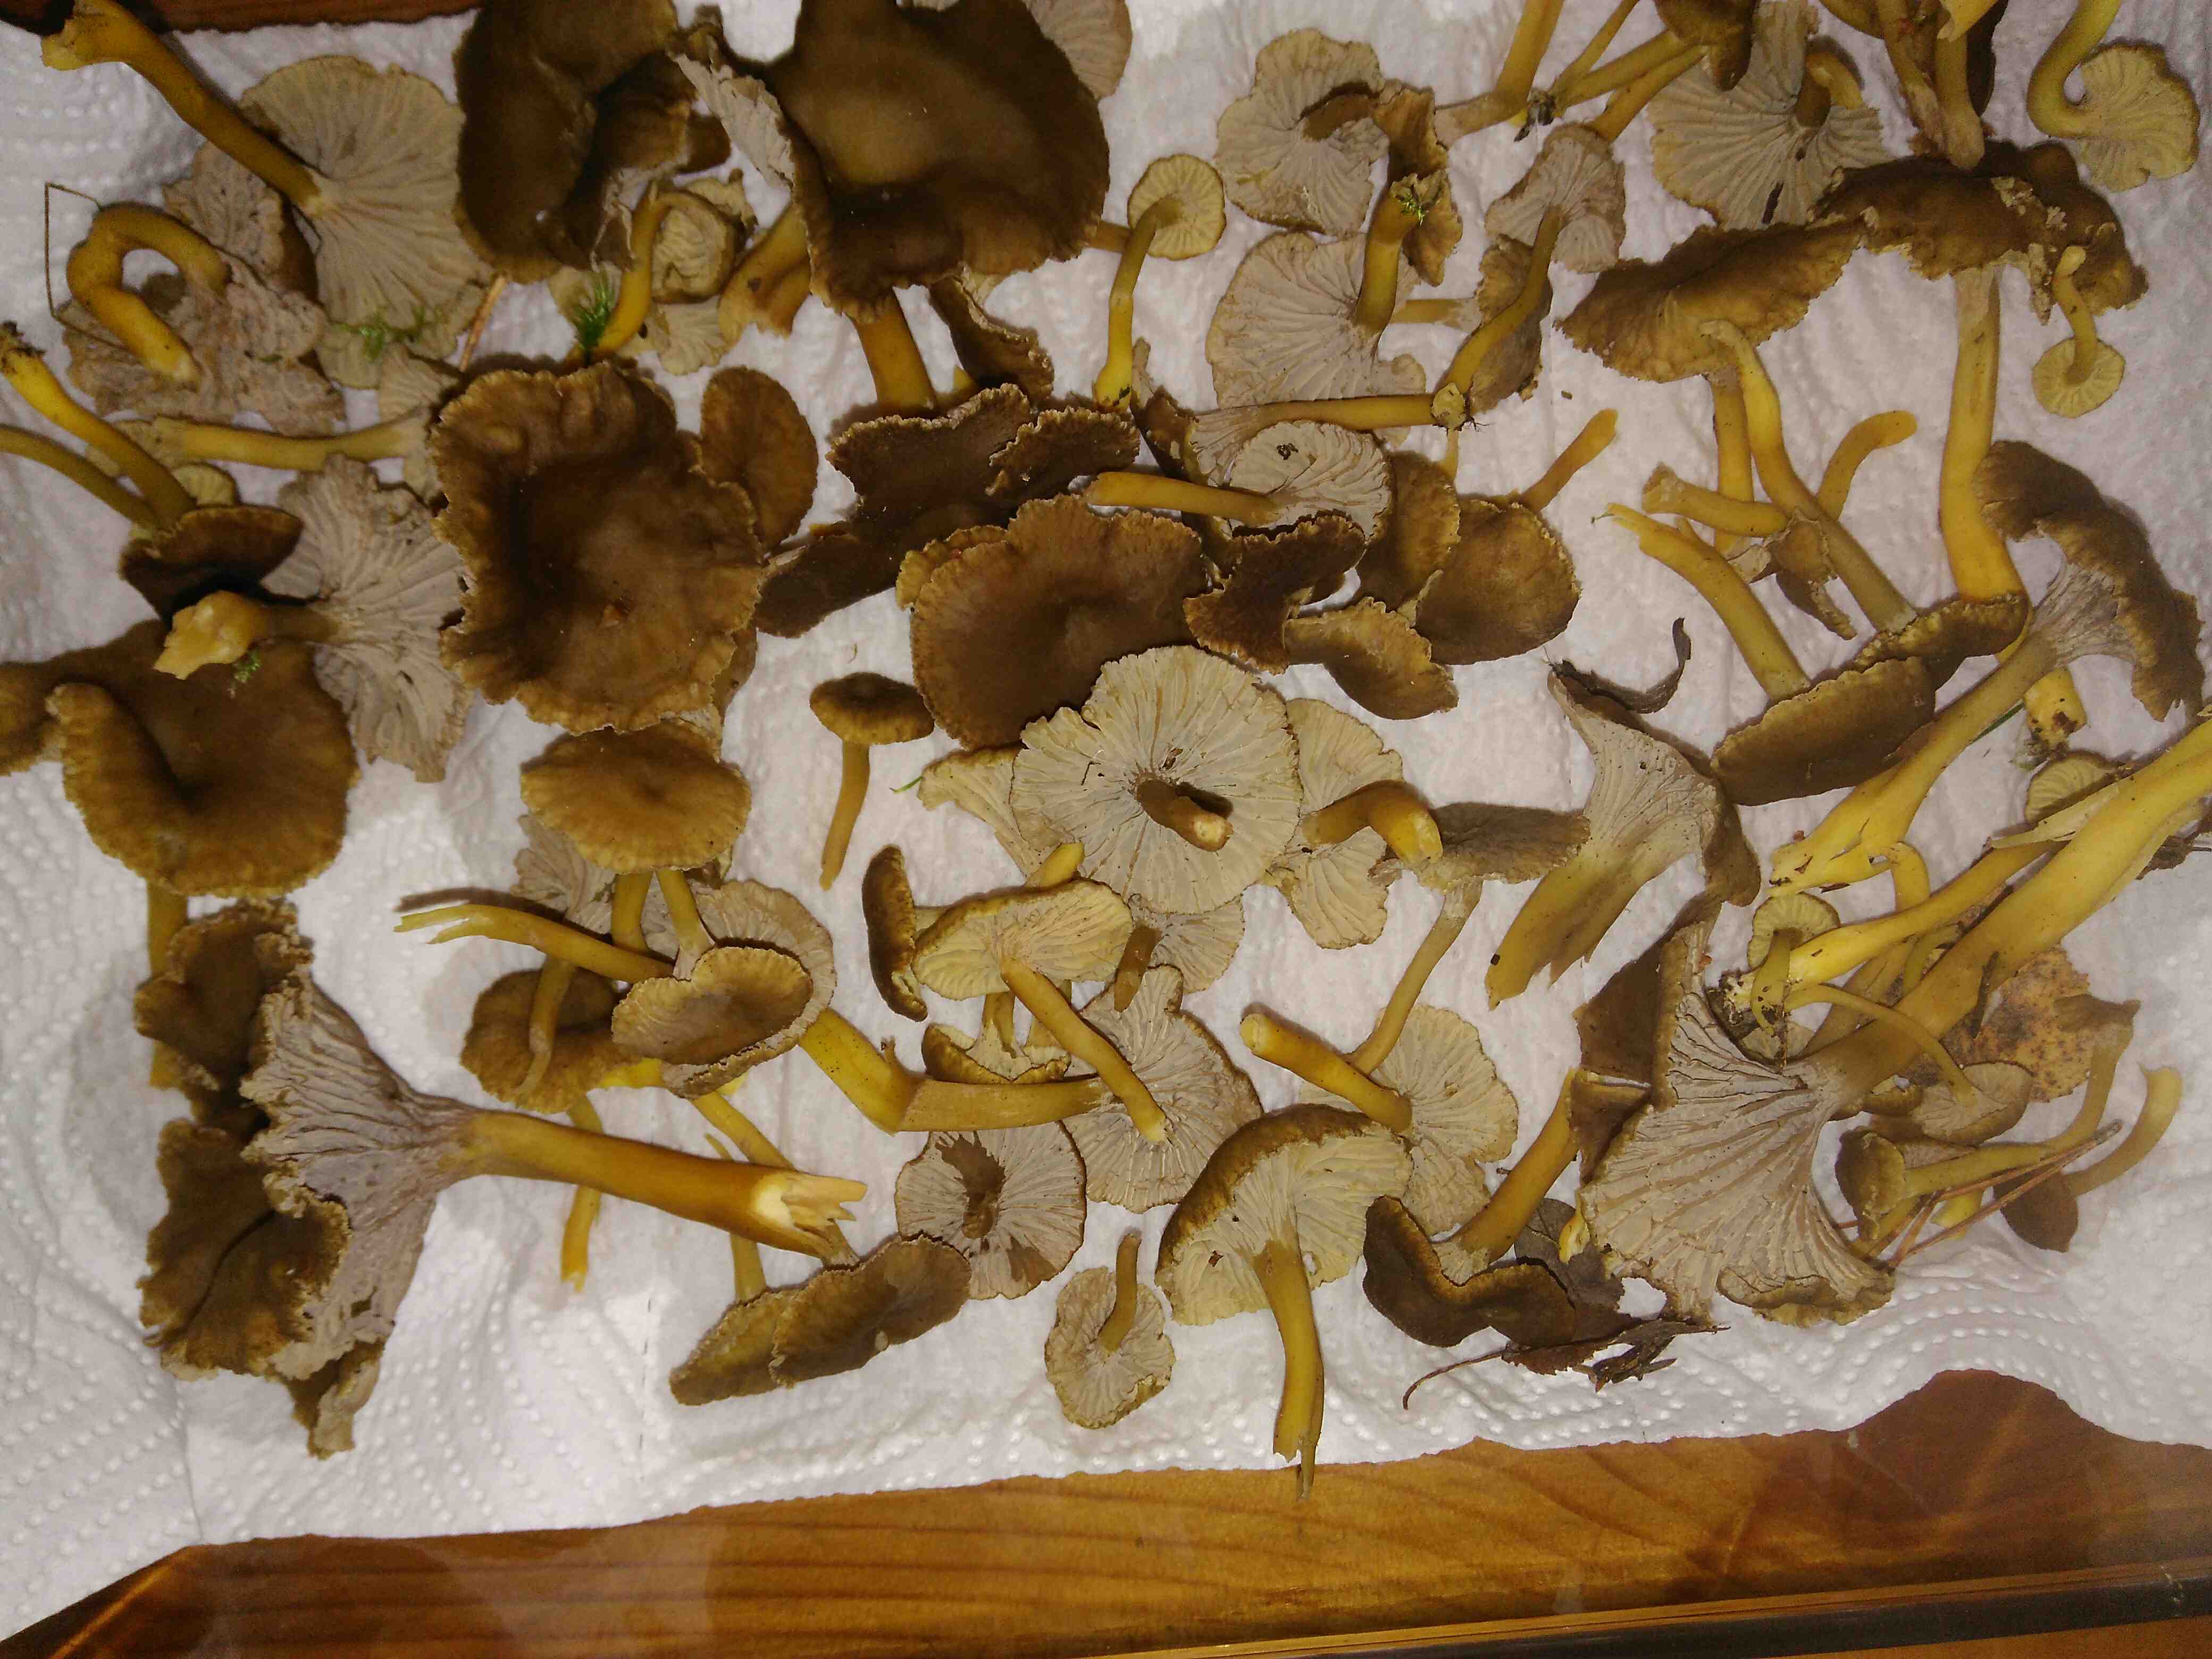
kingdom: Fungi
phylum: Basidiomycota
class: Agaricomycetes
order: Cantharellales
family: Hydnaceae
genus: Craterellus
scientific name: Craterellus tubaeformis
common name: tragt-kantarel
